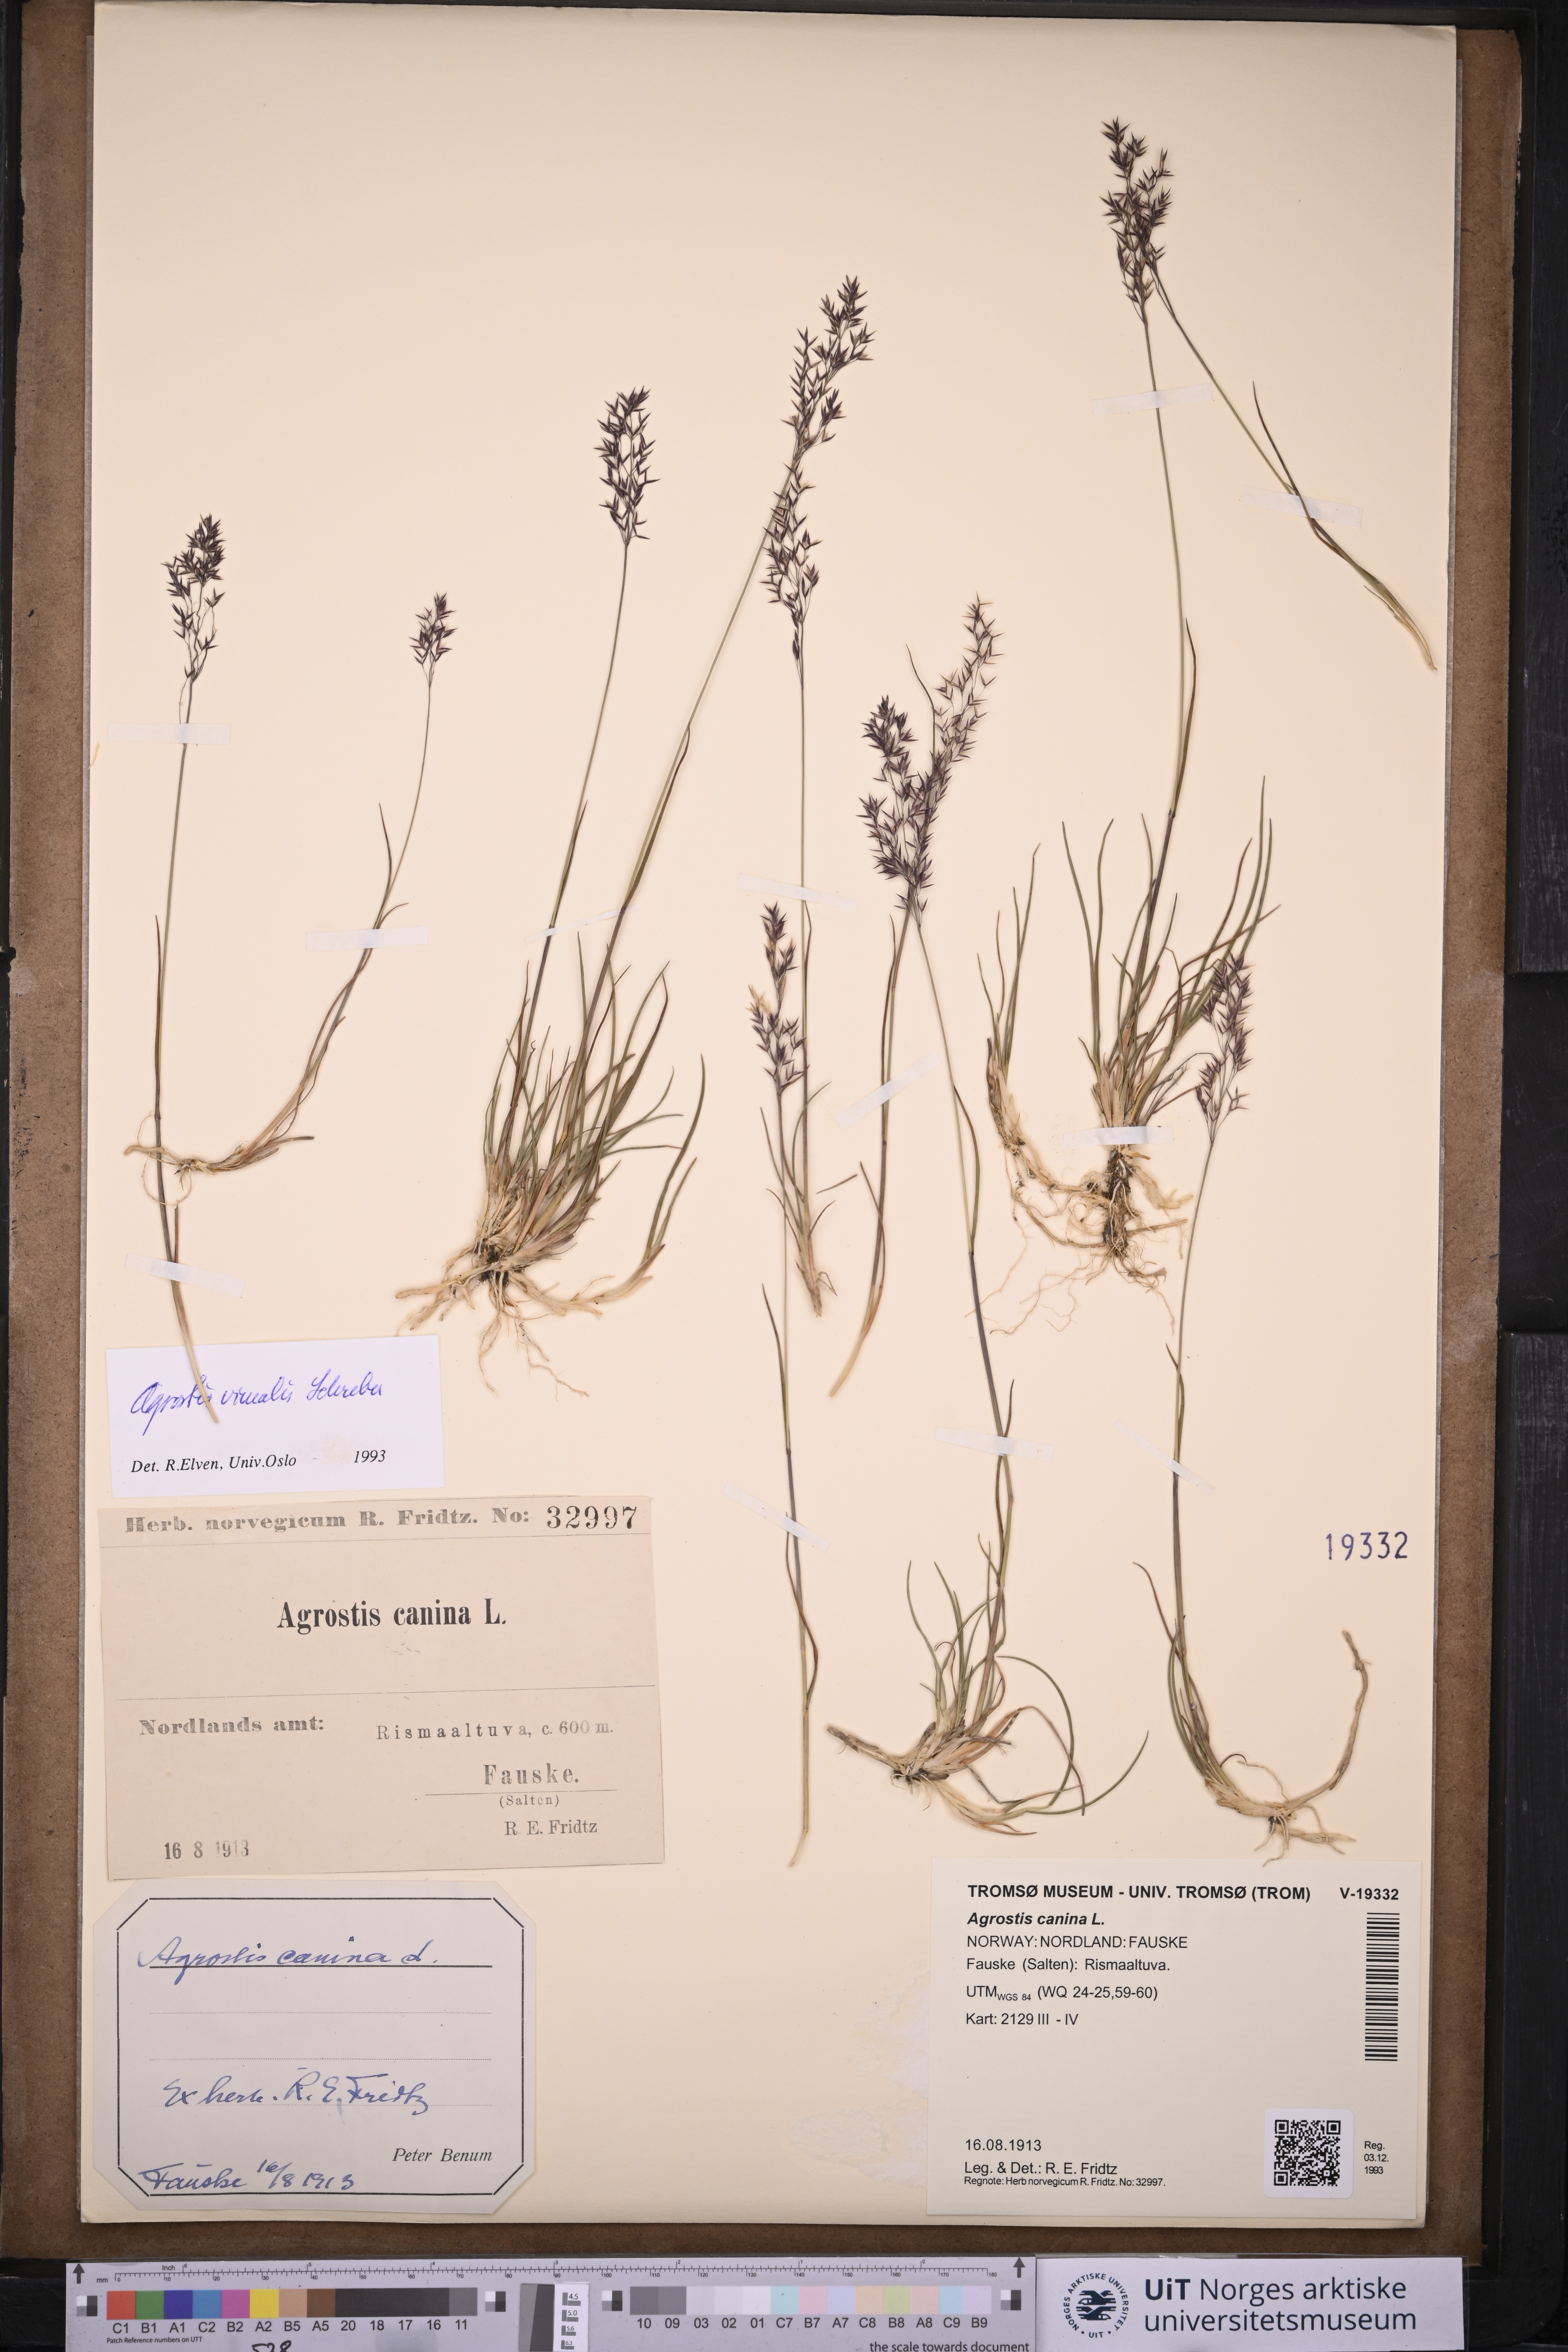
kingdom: Plantae
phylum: Tracheophyta
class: Liliopsida
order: Poales
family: Poaceae
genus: Agrostis
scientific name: Agrostis vinealis
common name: Brown bent
